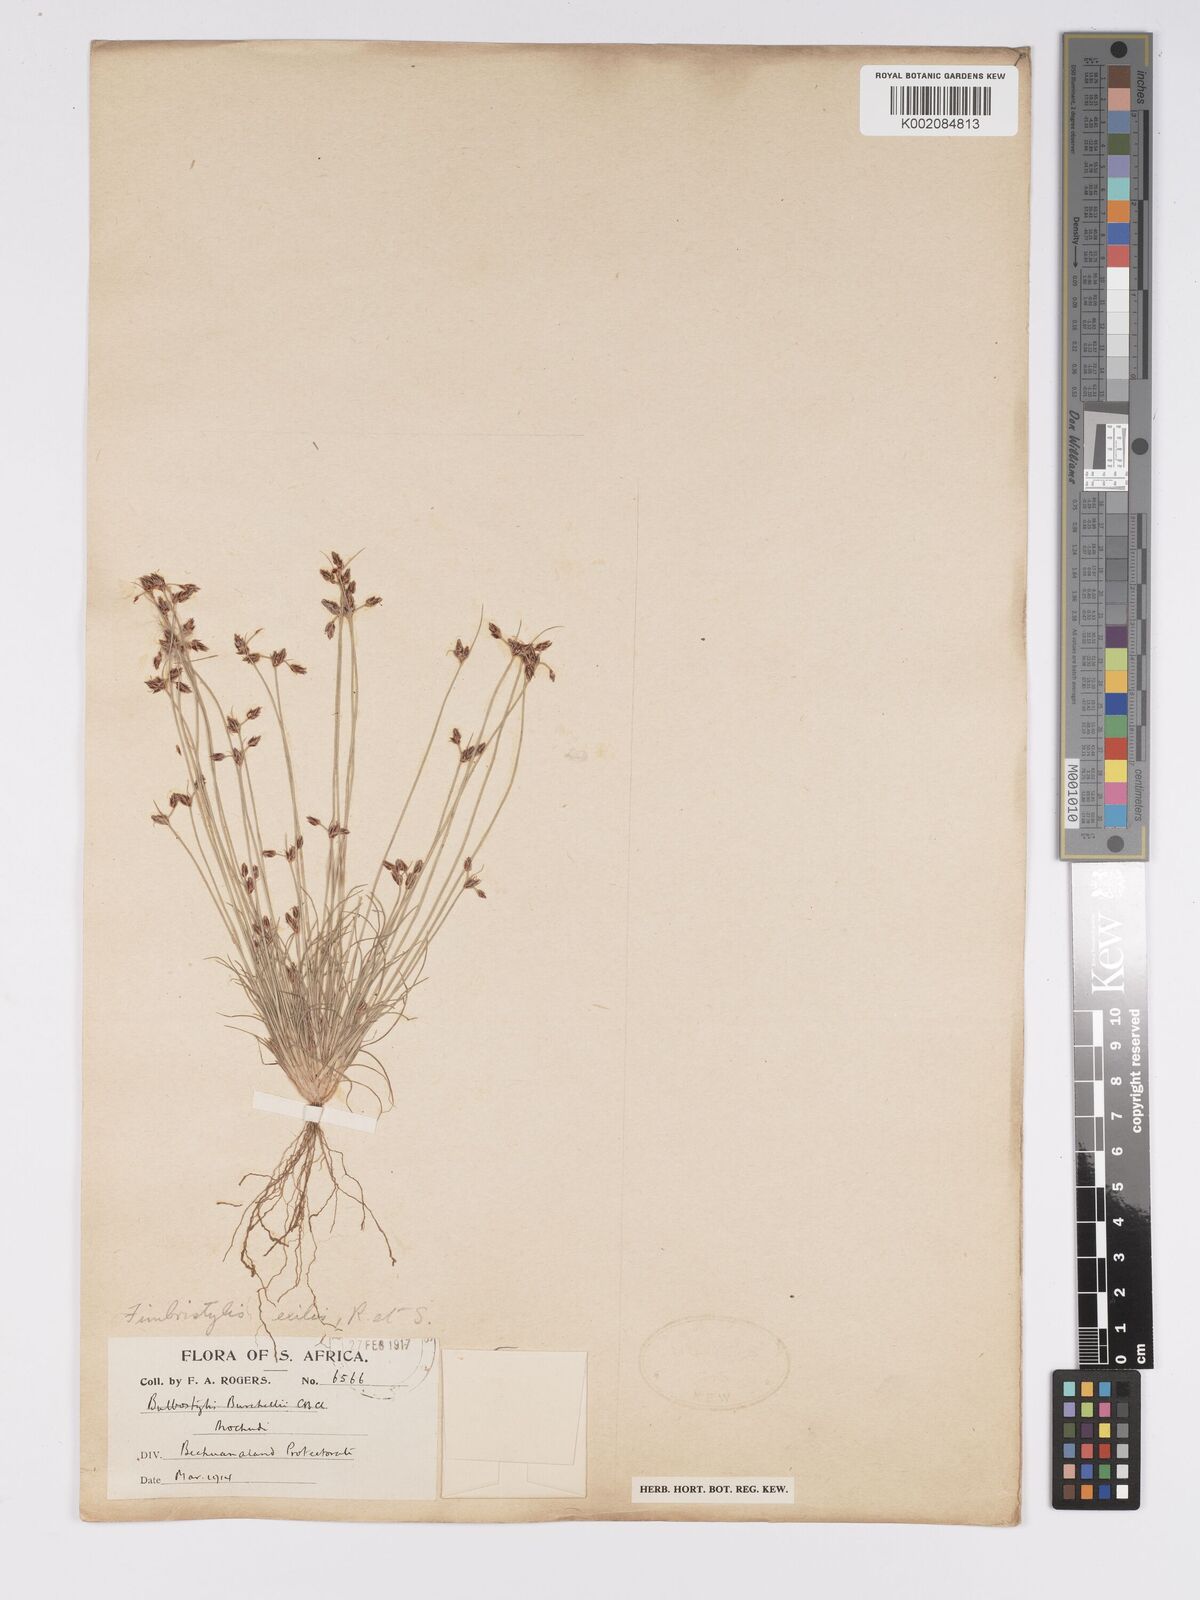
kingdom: Plantae
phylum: Tracheophyta
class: Liliopsida
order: Poales
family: Cyperaceae
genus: Bulbostylis
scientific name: Bulbostylis hispidula
